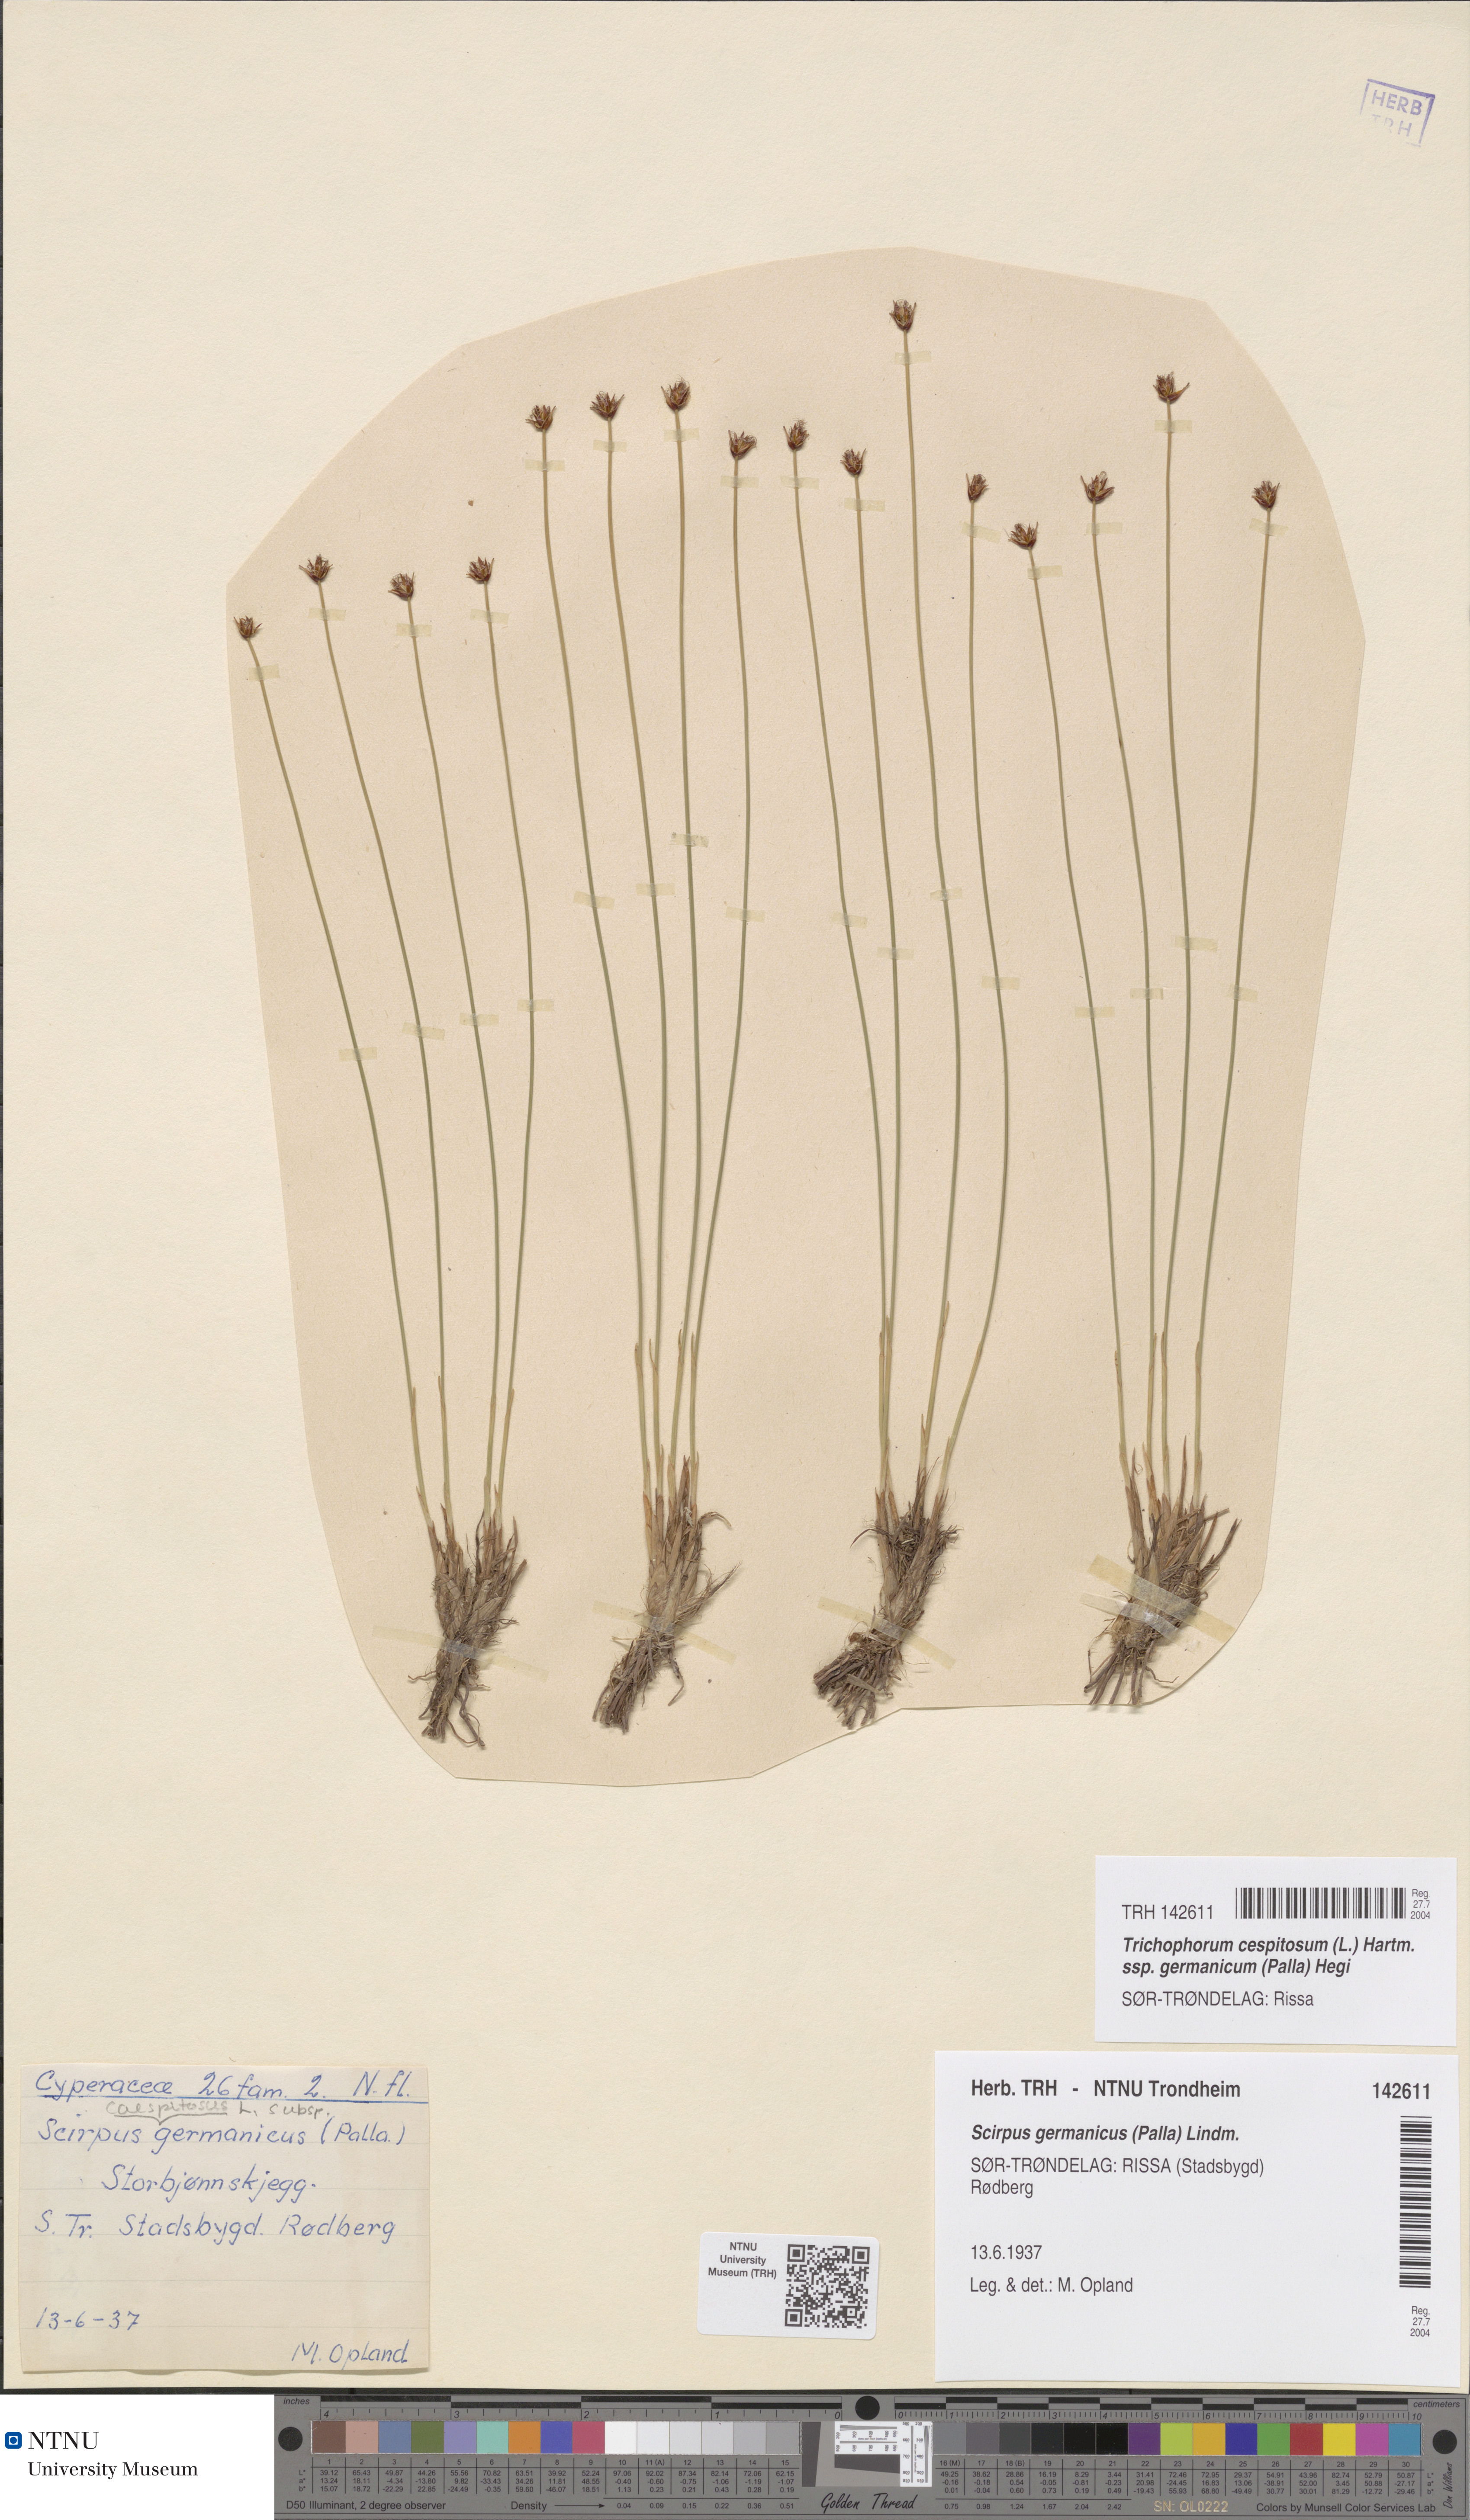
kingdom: Plantae
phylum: Tracheophyta
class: Liliopsida
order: Poales
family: Cyperaceae
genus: Trichophorum
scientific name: Trichophorum cespitosum
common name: Cespitose bulrush
